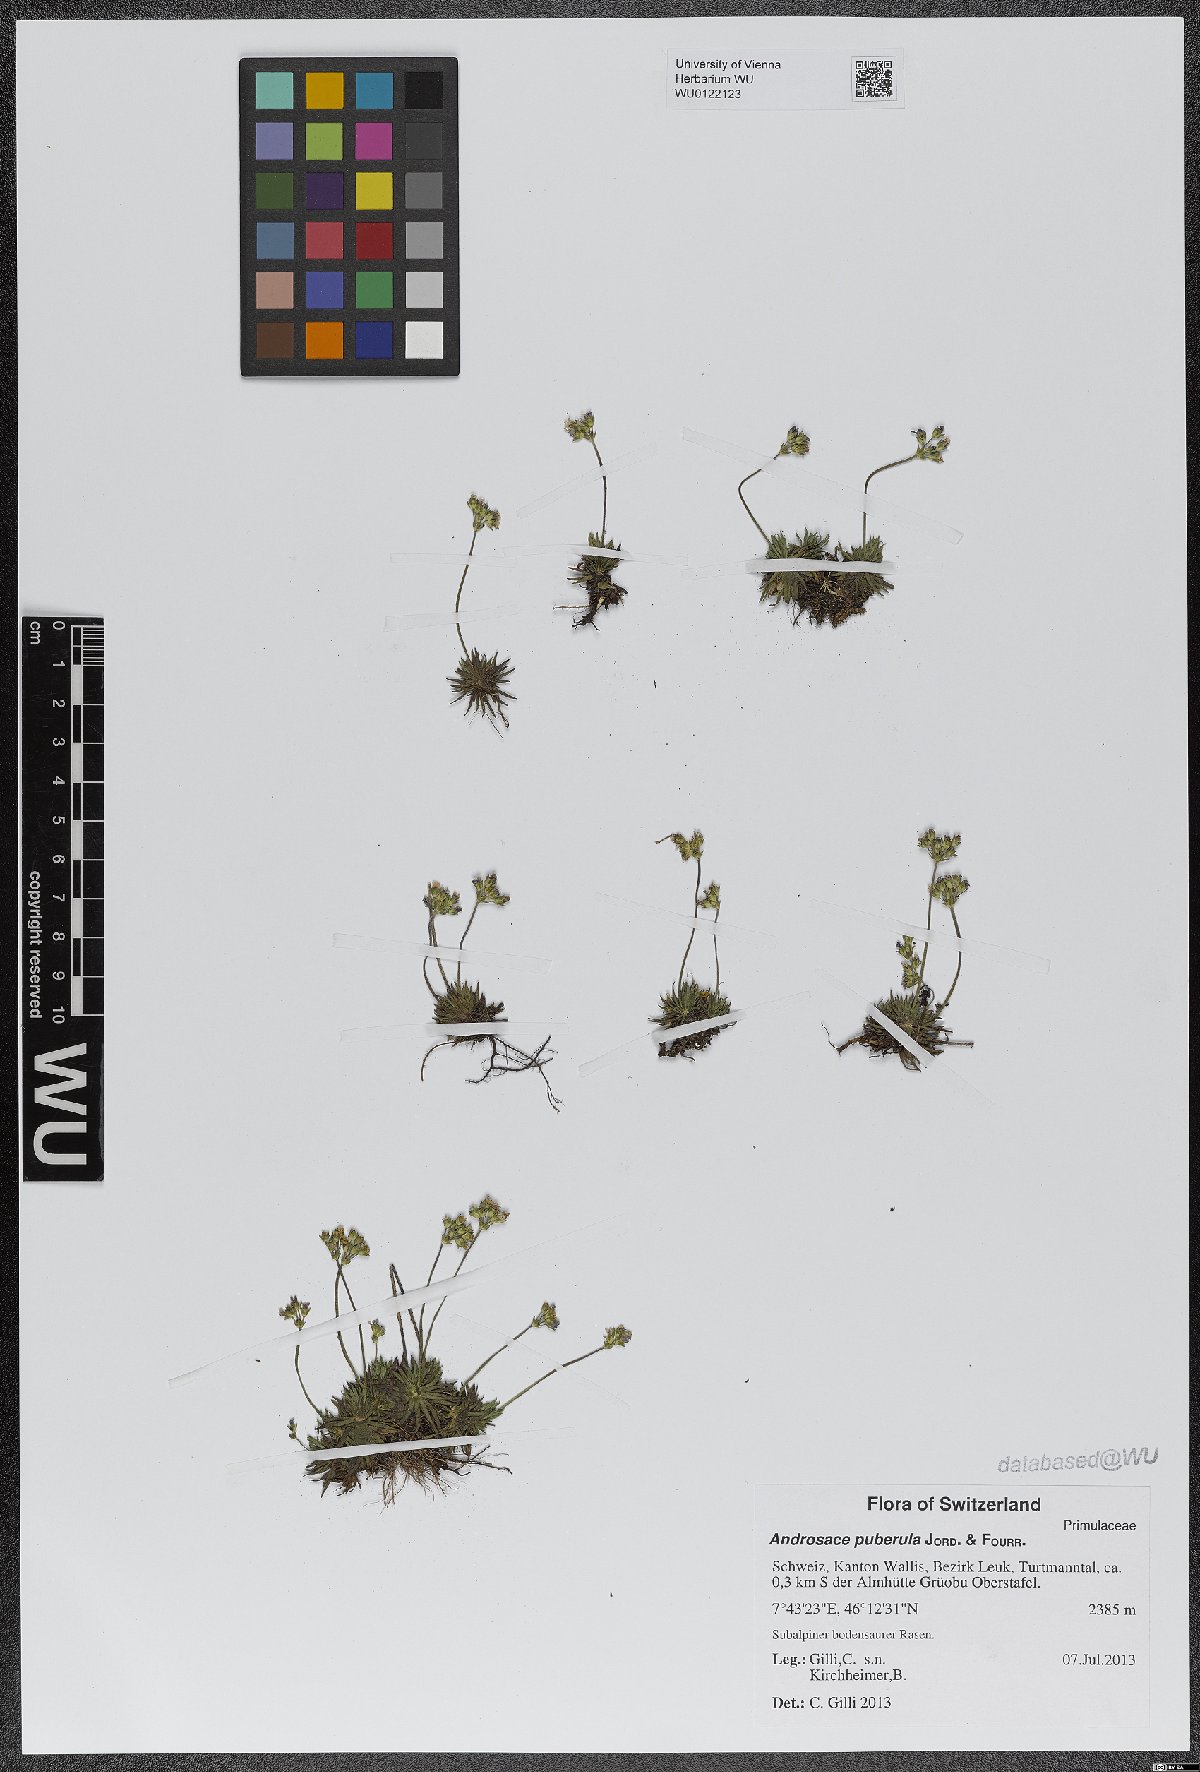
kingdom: Plantae
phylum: Tracheophyta
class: Magnoliopsida
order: Ericales
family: Primulaceae
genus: Androsace
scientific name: Androsace adfinis
